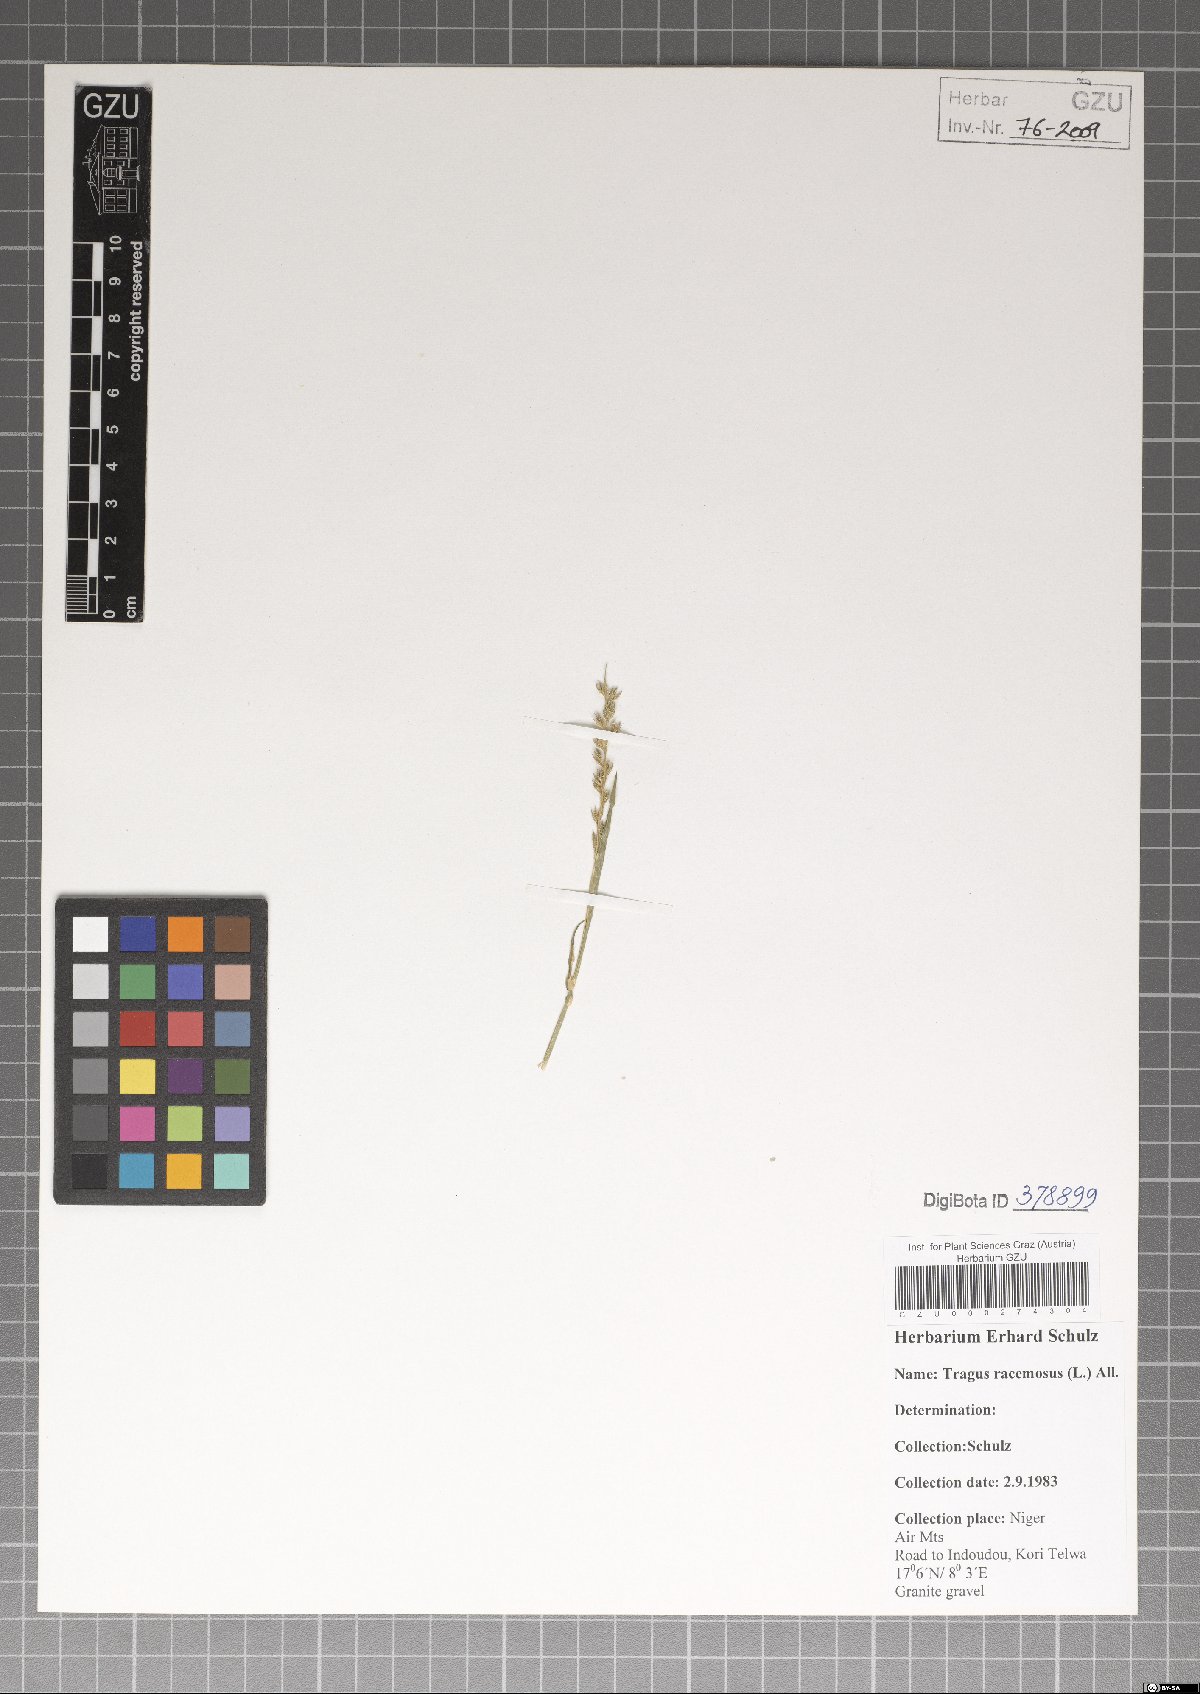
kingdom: Plantae
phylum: Tracheophyta
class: Liliopsida
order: Poales
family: Poaceae
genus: Tragus
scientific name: Tragus racemosus
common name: European bur-grass
